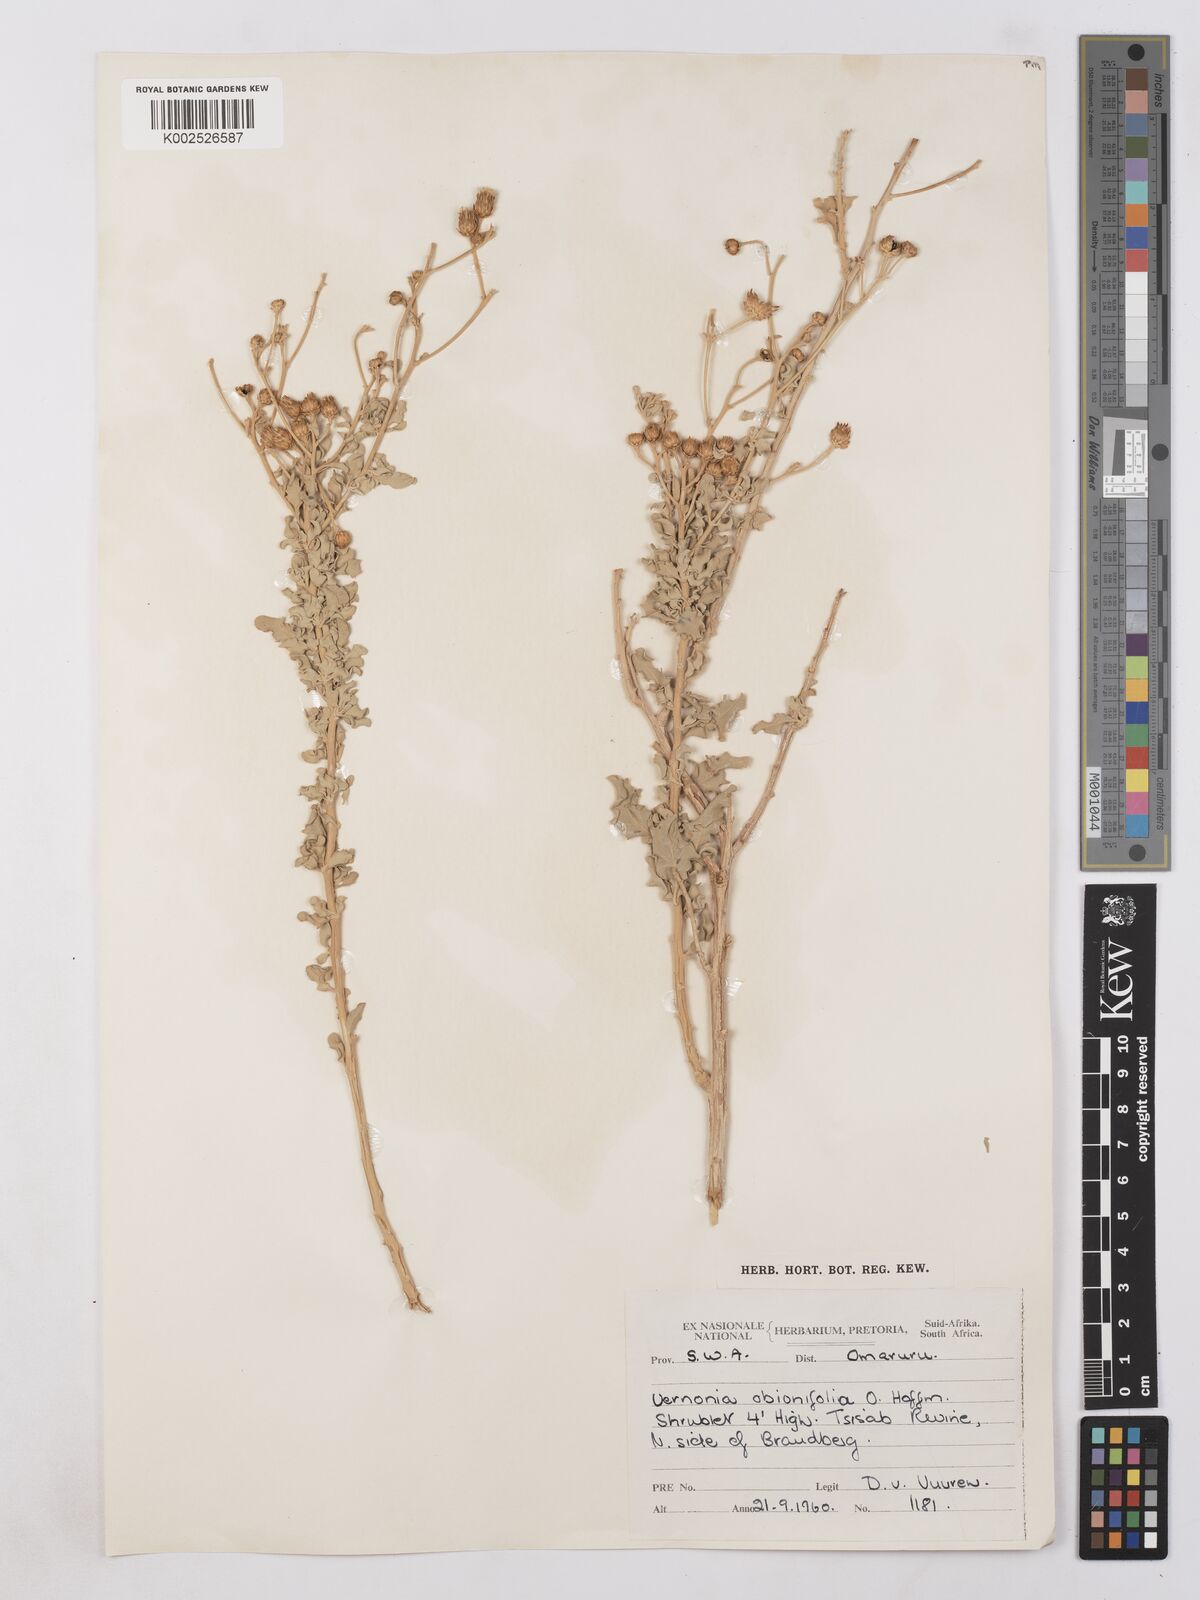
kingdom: Plantae
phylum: Tracheophyta
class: Magnoliopsida
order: Asterales
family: Asteraceae
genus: Namibithamnus
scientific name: Namibithamnus obionifolius
